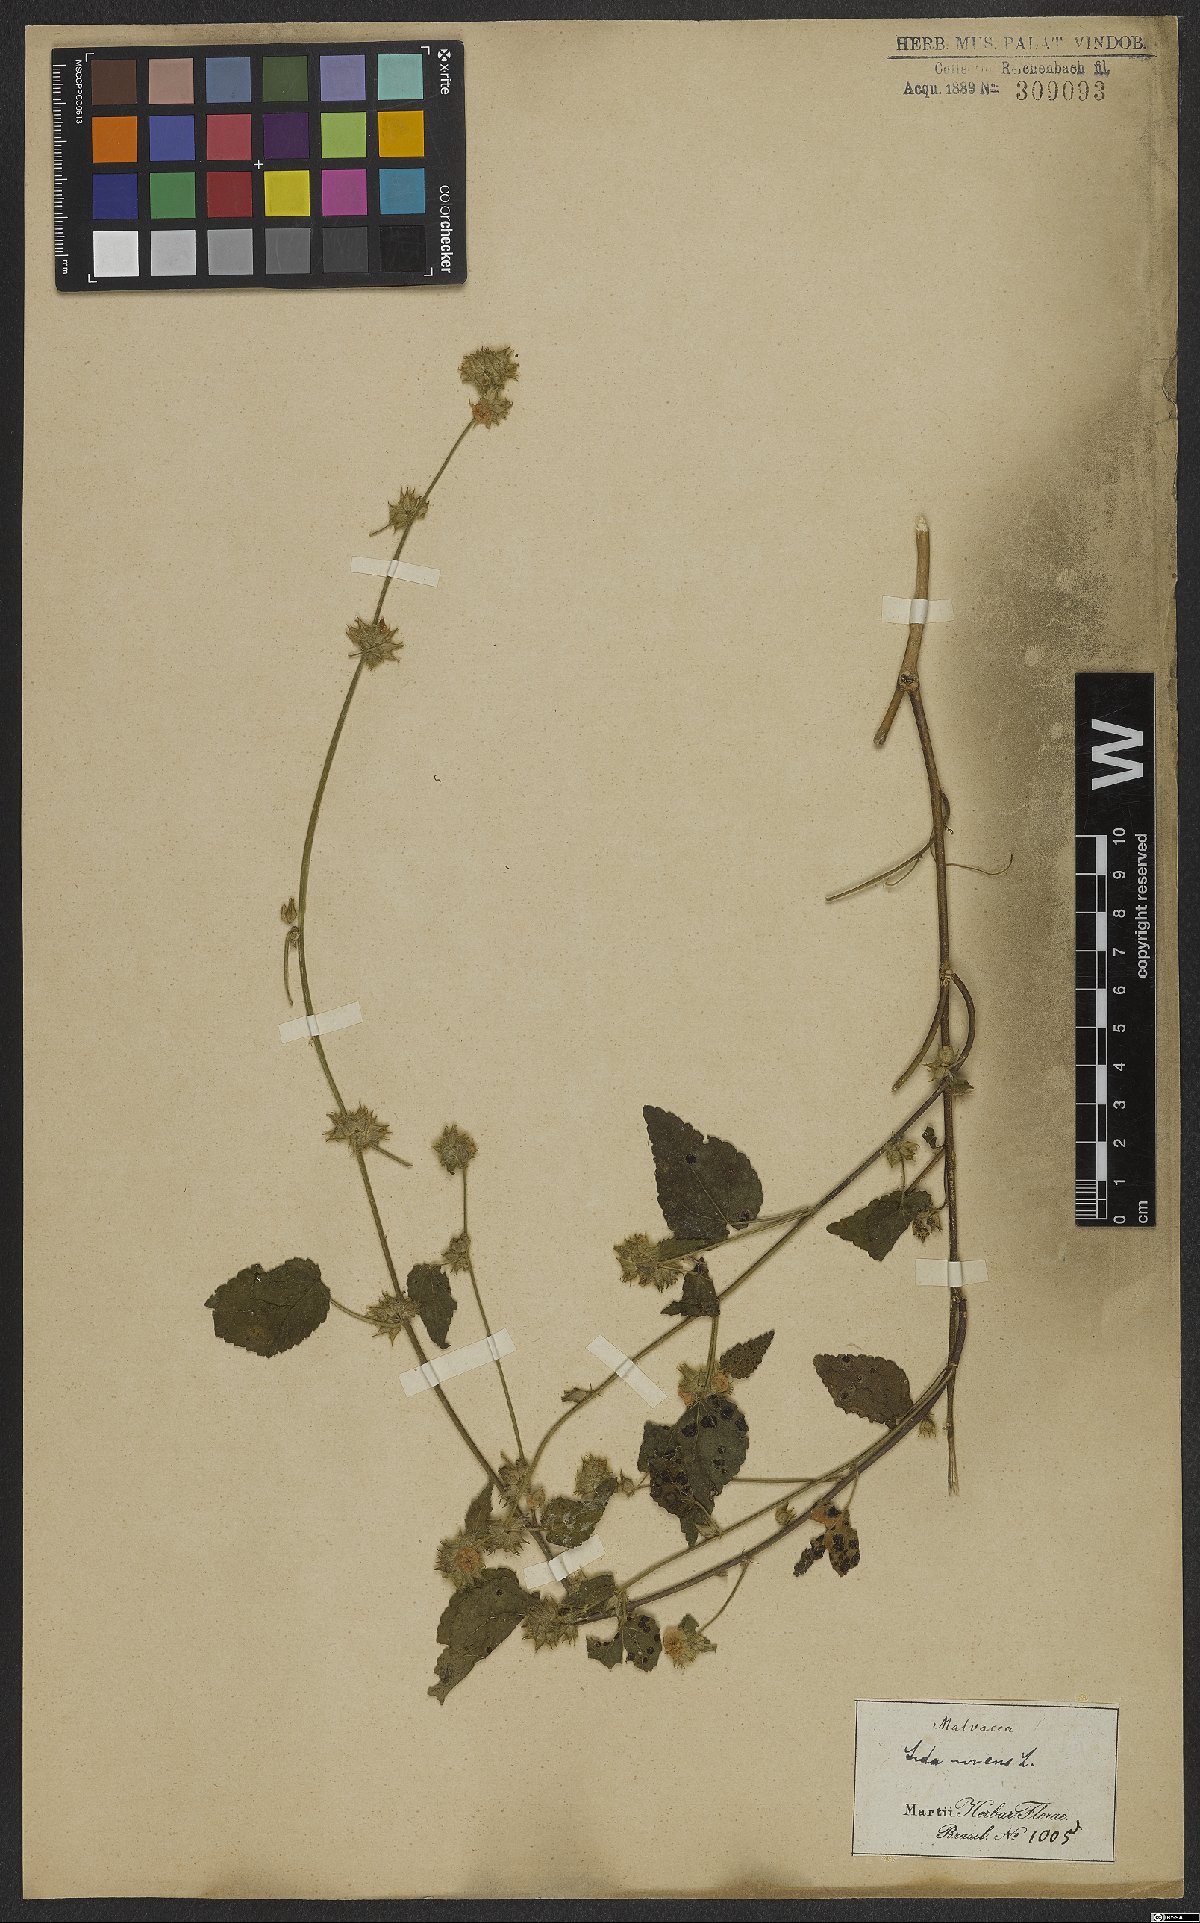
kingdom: Plantae
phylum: Tracheophyta
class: Magnoliopsida
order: Malvales
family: Malvaceae
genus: Sida
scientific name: Sida urens
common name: Tropical fanpetals
